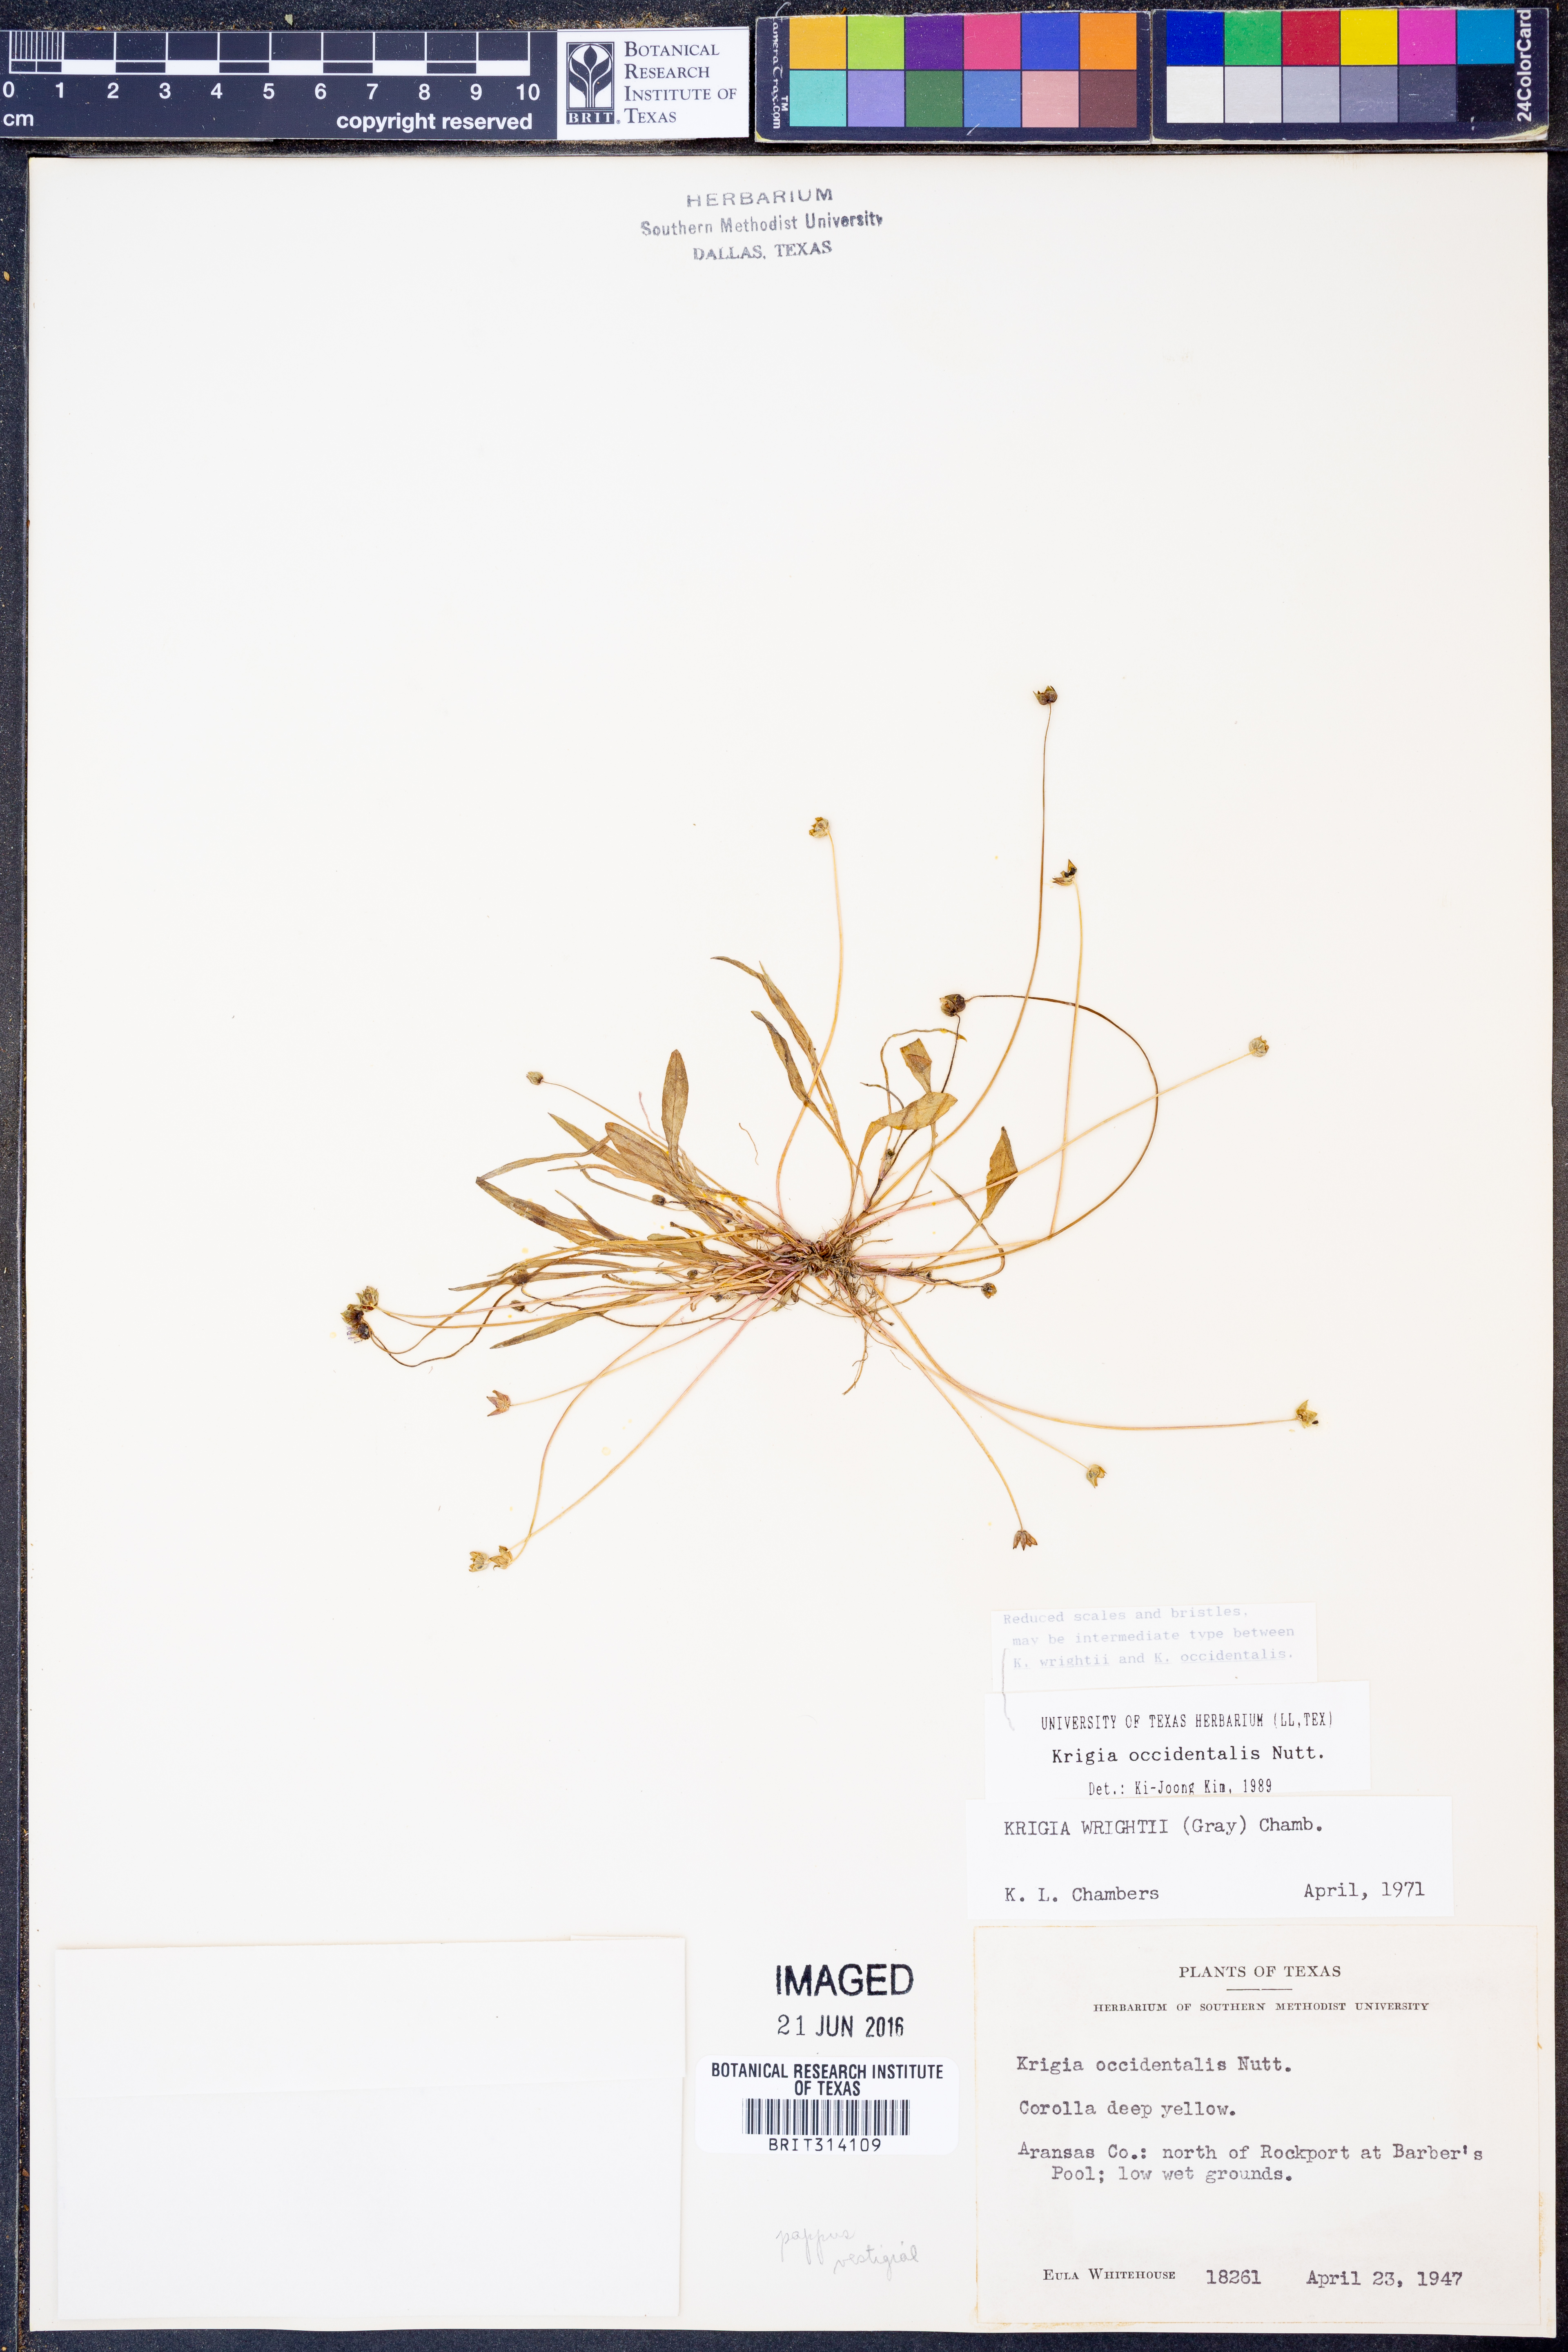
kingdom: Plantae
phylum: Tracheophyta
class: Magnoliopsida
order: Asterales
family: Asteraceae
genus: Krigia
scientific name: Krigia occidentalis
